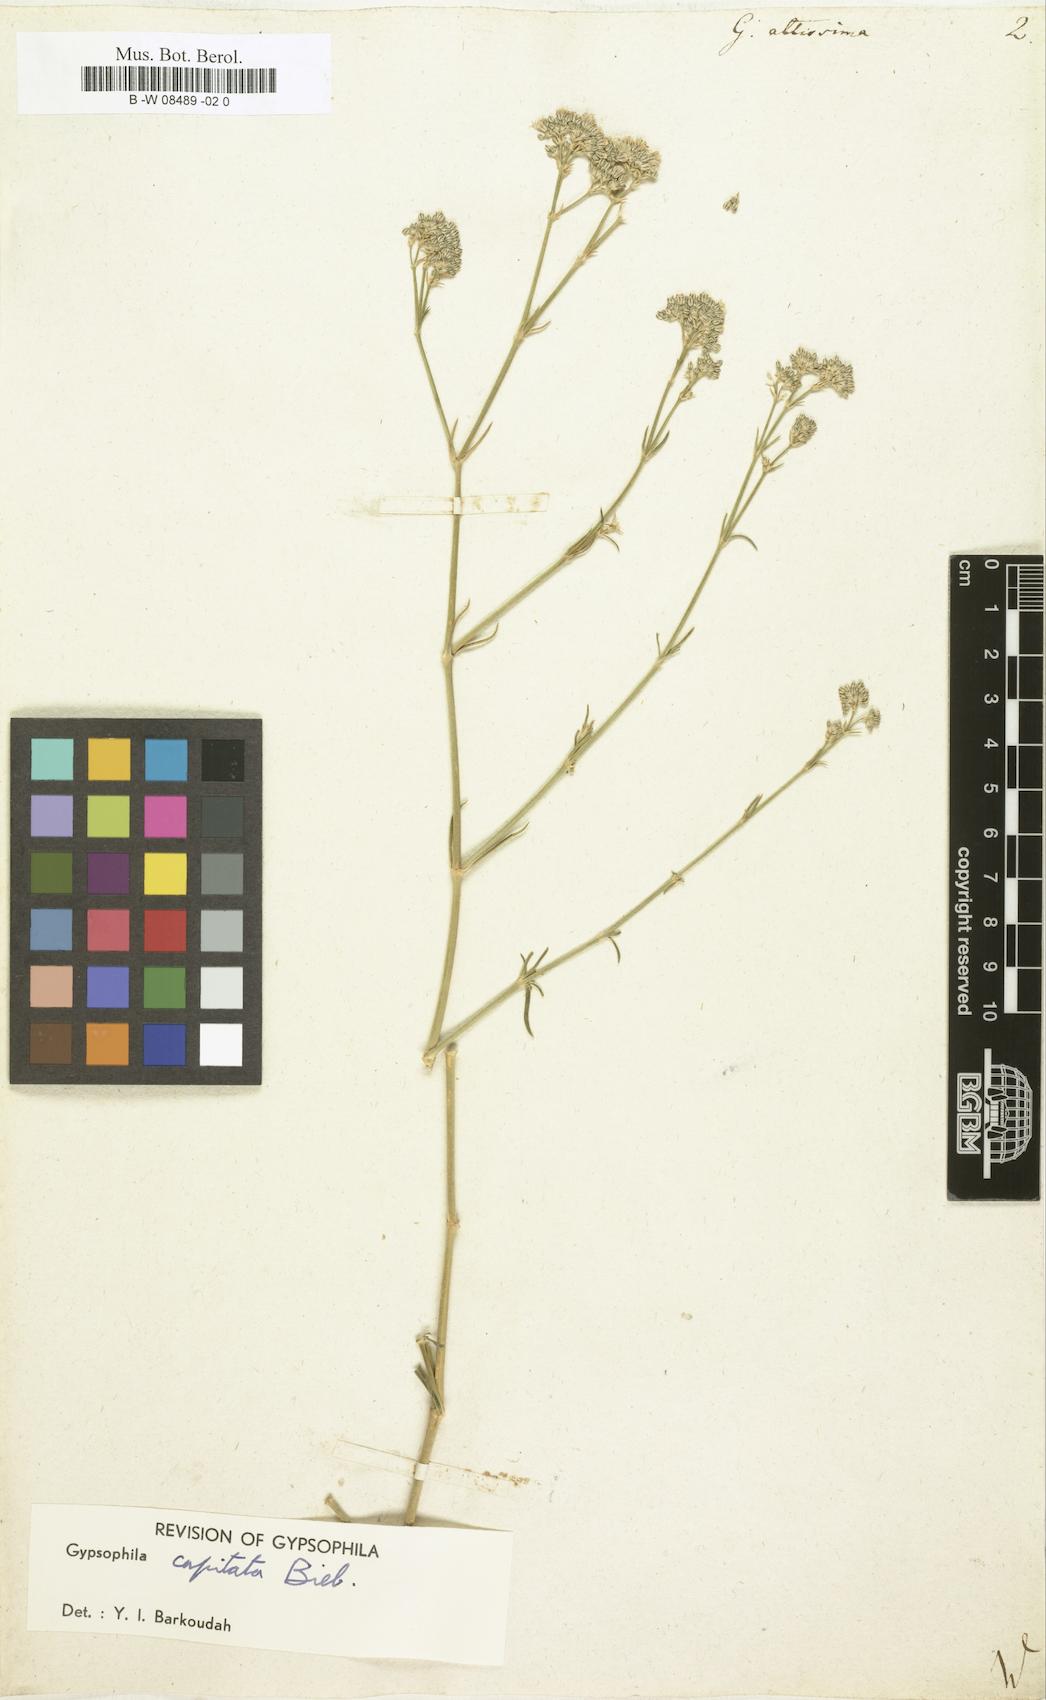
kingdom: Plantae
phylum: Tracheophyta
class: Magnoliopsida
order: Caryophyllales
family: Caryophyllaceae
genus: Gypsophila
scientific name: Gypsophila altissima
